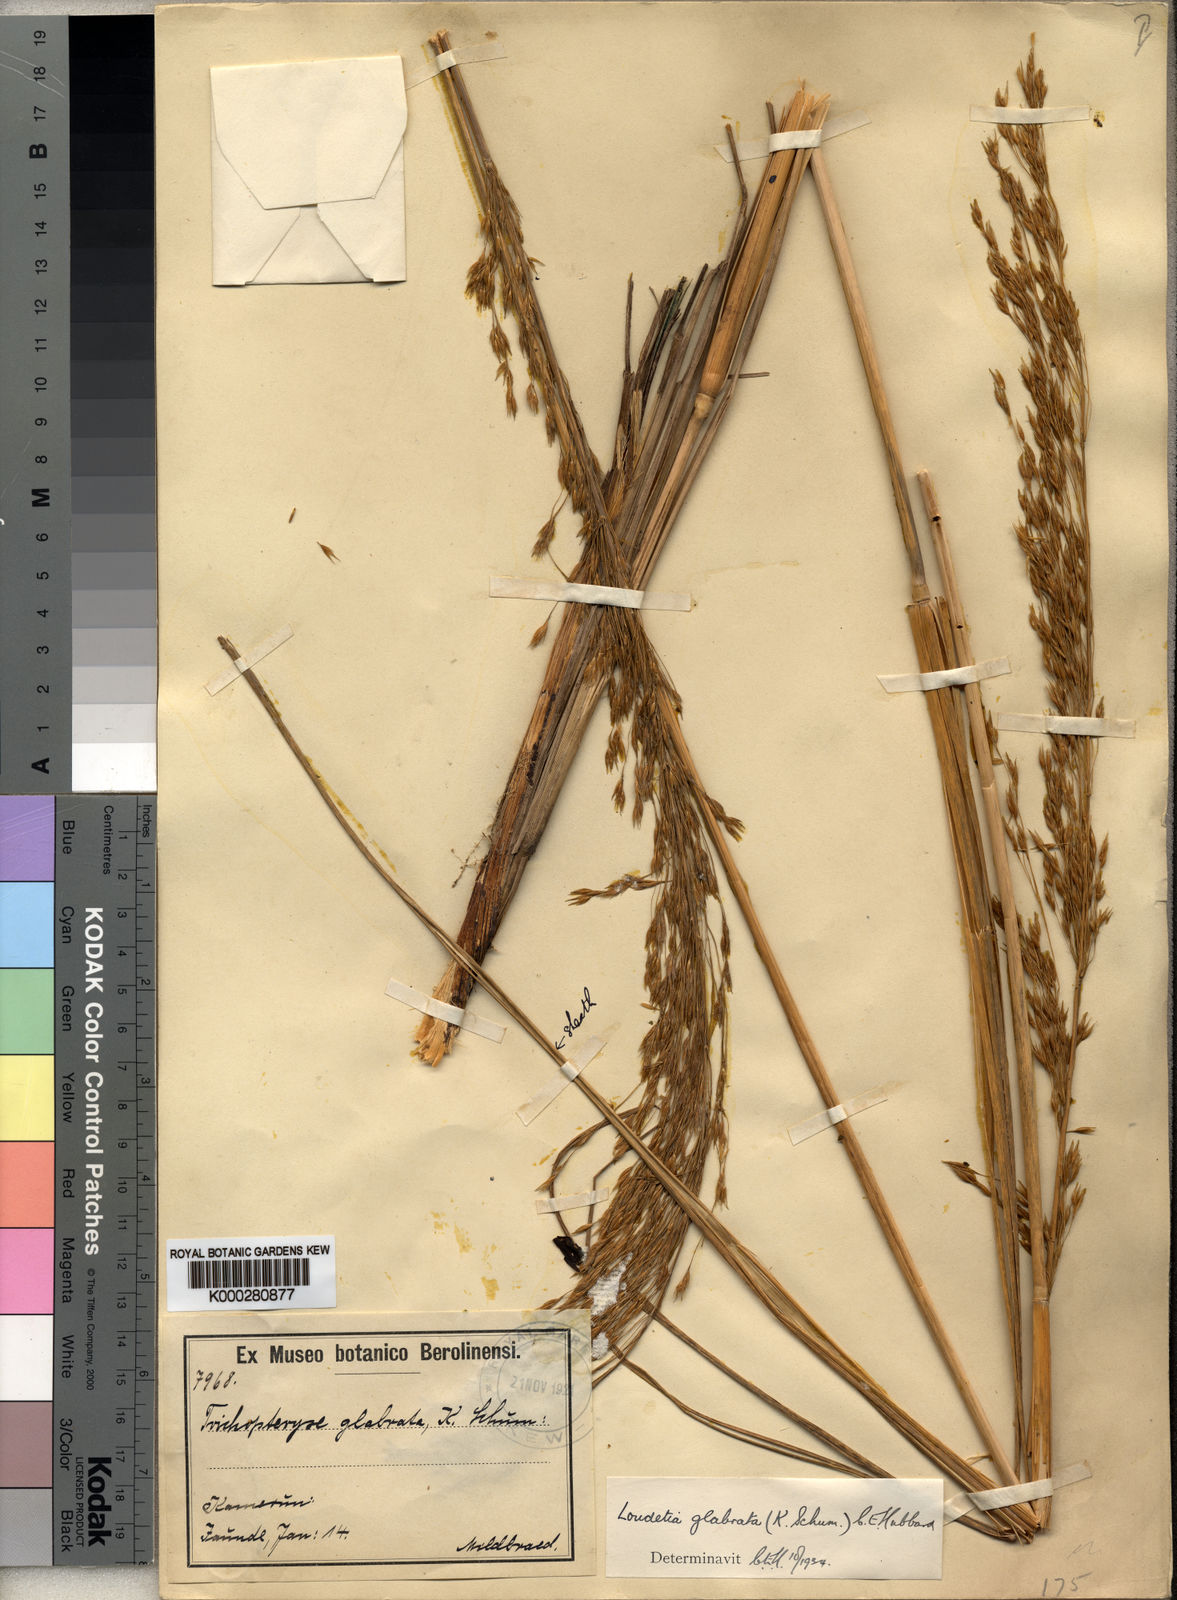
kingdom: Plantae
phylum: Tracheophyta
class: Liliopsida
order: Poales
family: Poaceae
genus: Loudetiopsis
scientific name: Loudetiopsis glabrata
